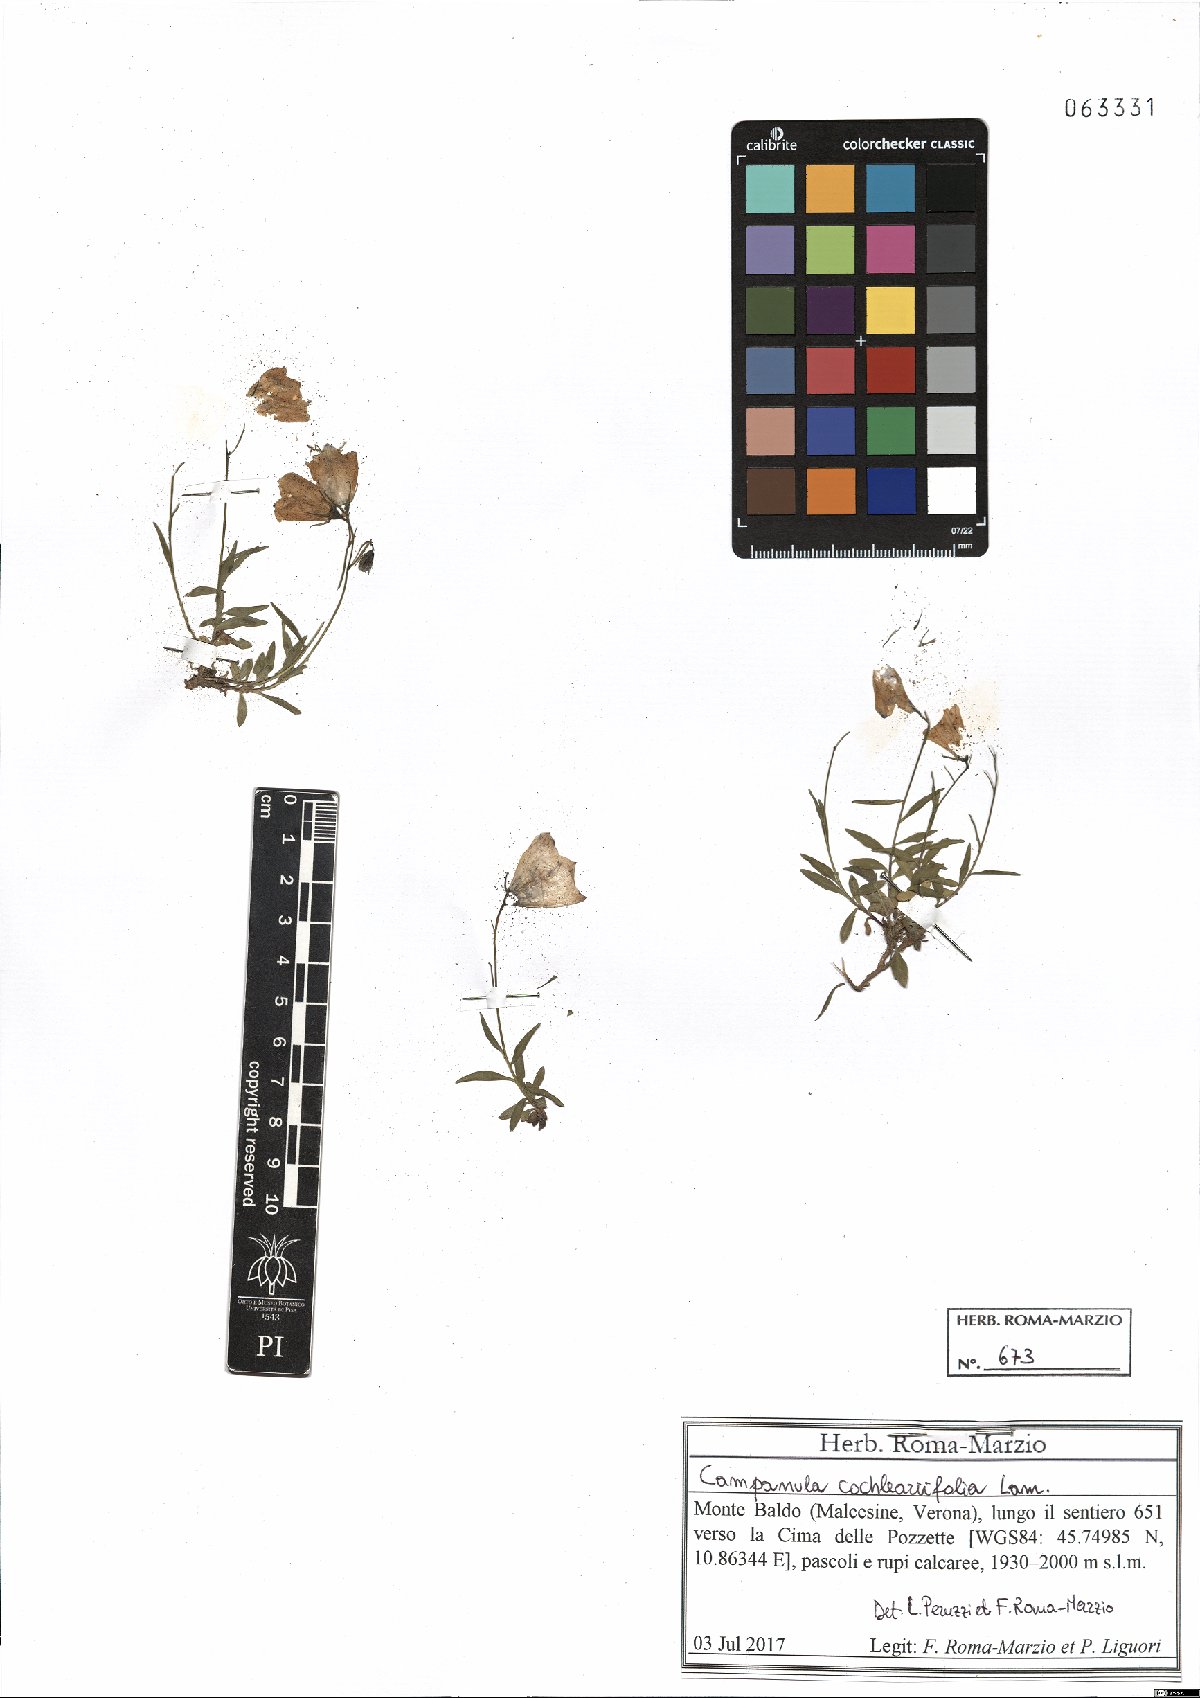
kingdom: Plantae
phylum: Tracheophyta
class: Magnoliopsida
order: Asterales
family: Campanulaceae
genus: Campanula
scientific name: Campanula cochleariifolia
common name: Fairies'-thimbles
